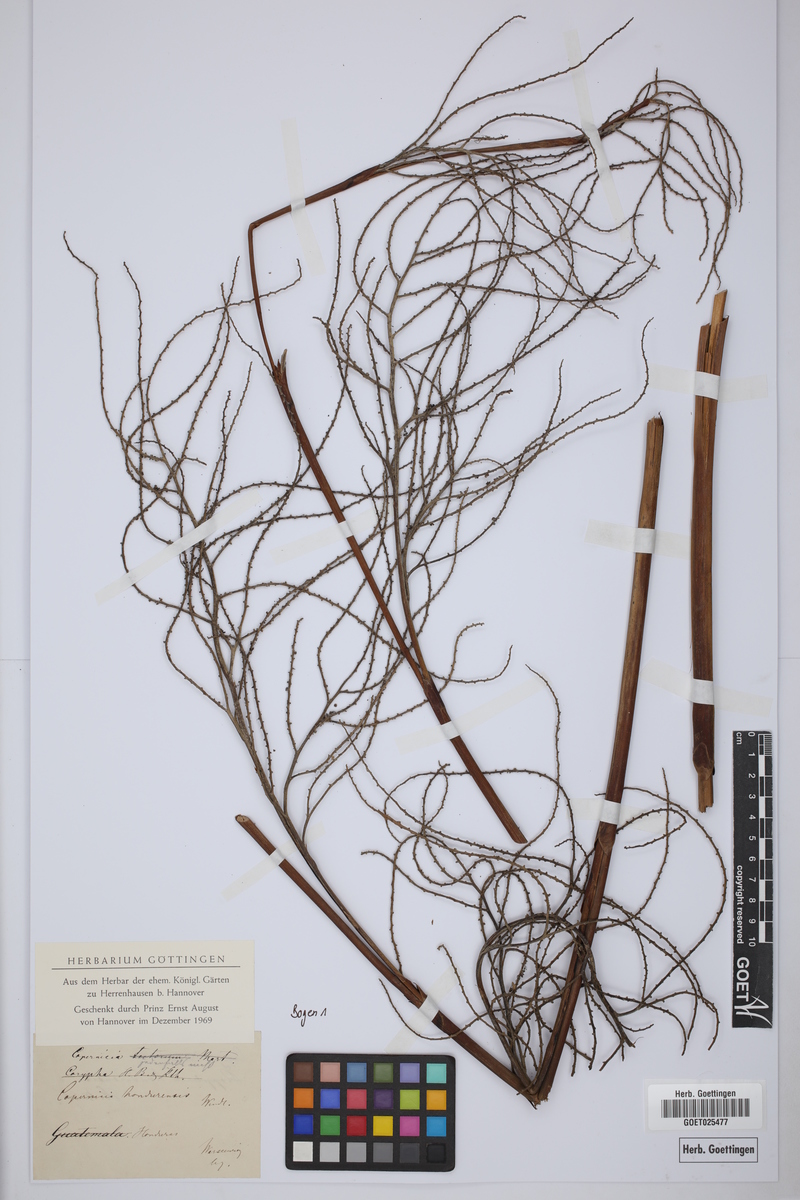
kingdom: Plantae
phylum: Tracheophyta
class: Liliopsida
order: Arecales
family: Arecaceae
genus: Copernicia
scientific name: Copernicia
